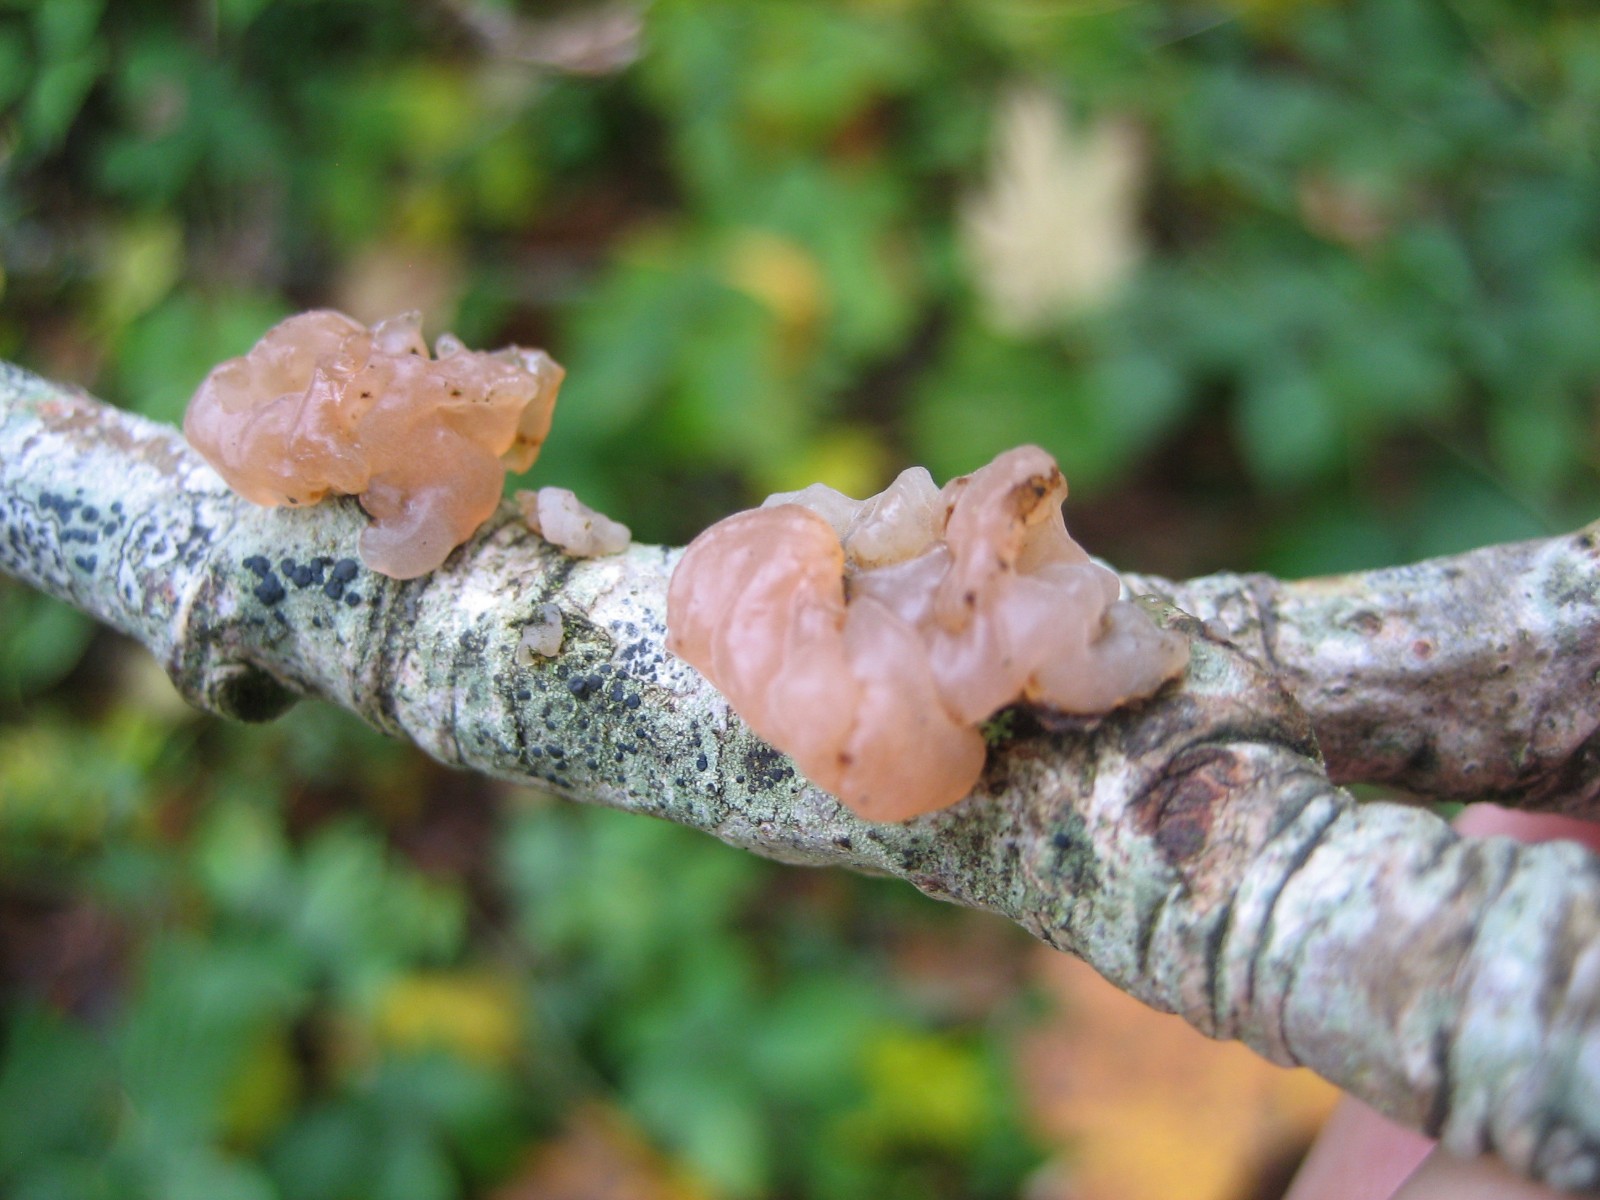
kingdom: Fungi
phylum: Basidiomycota
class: Agaricomycetes
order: Auriculariales
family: Hyaloriaceae
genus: Myxarium
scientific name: Myxarium hyalinum
